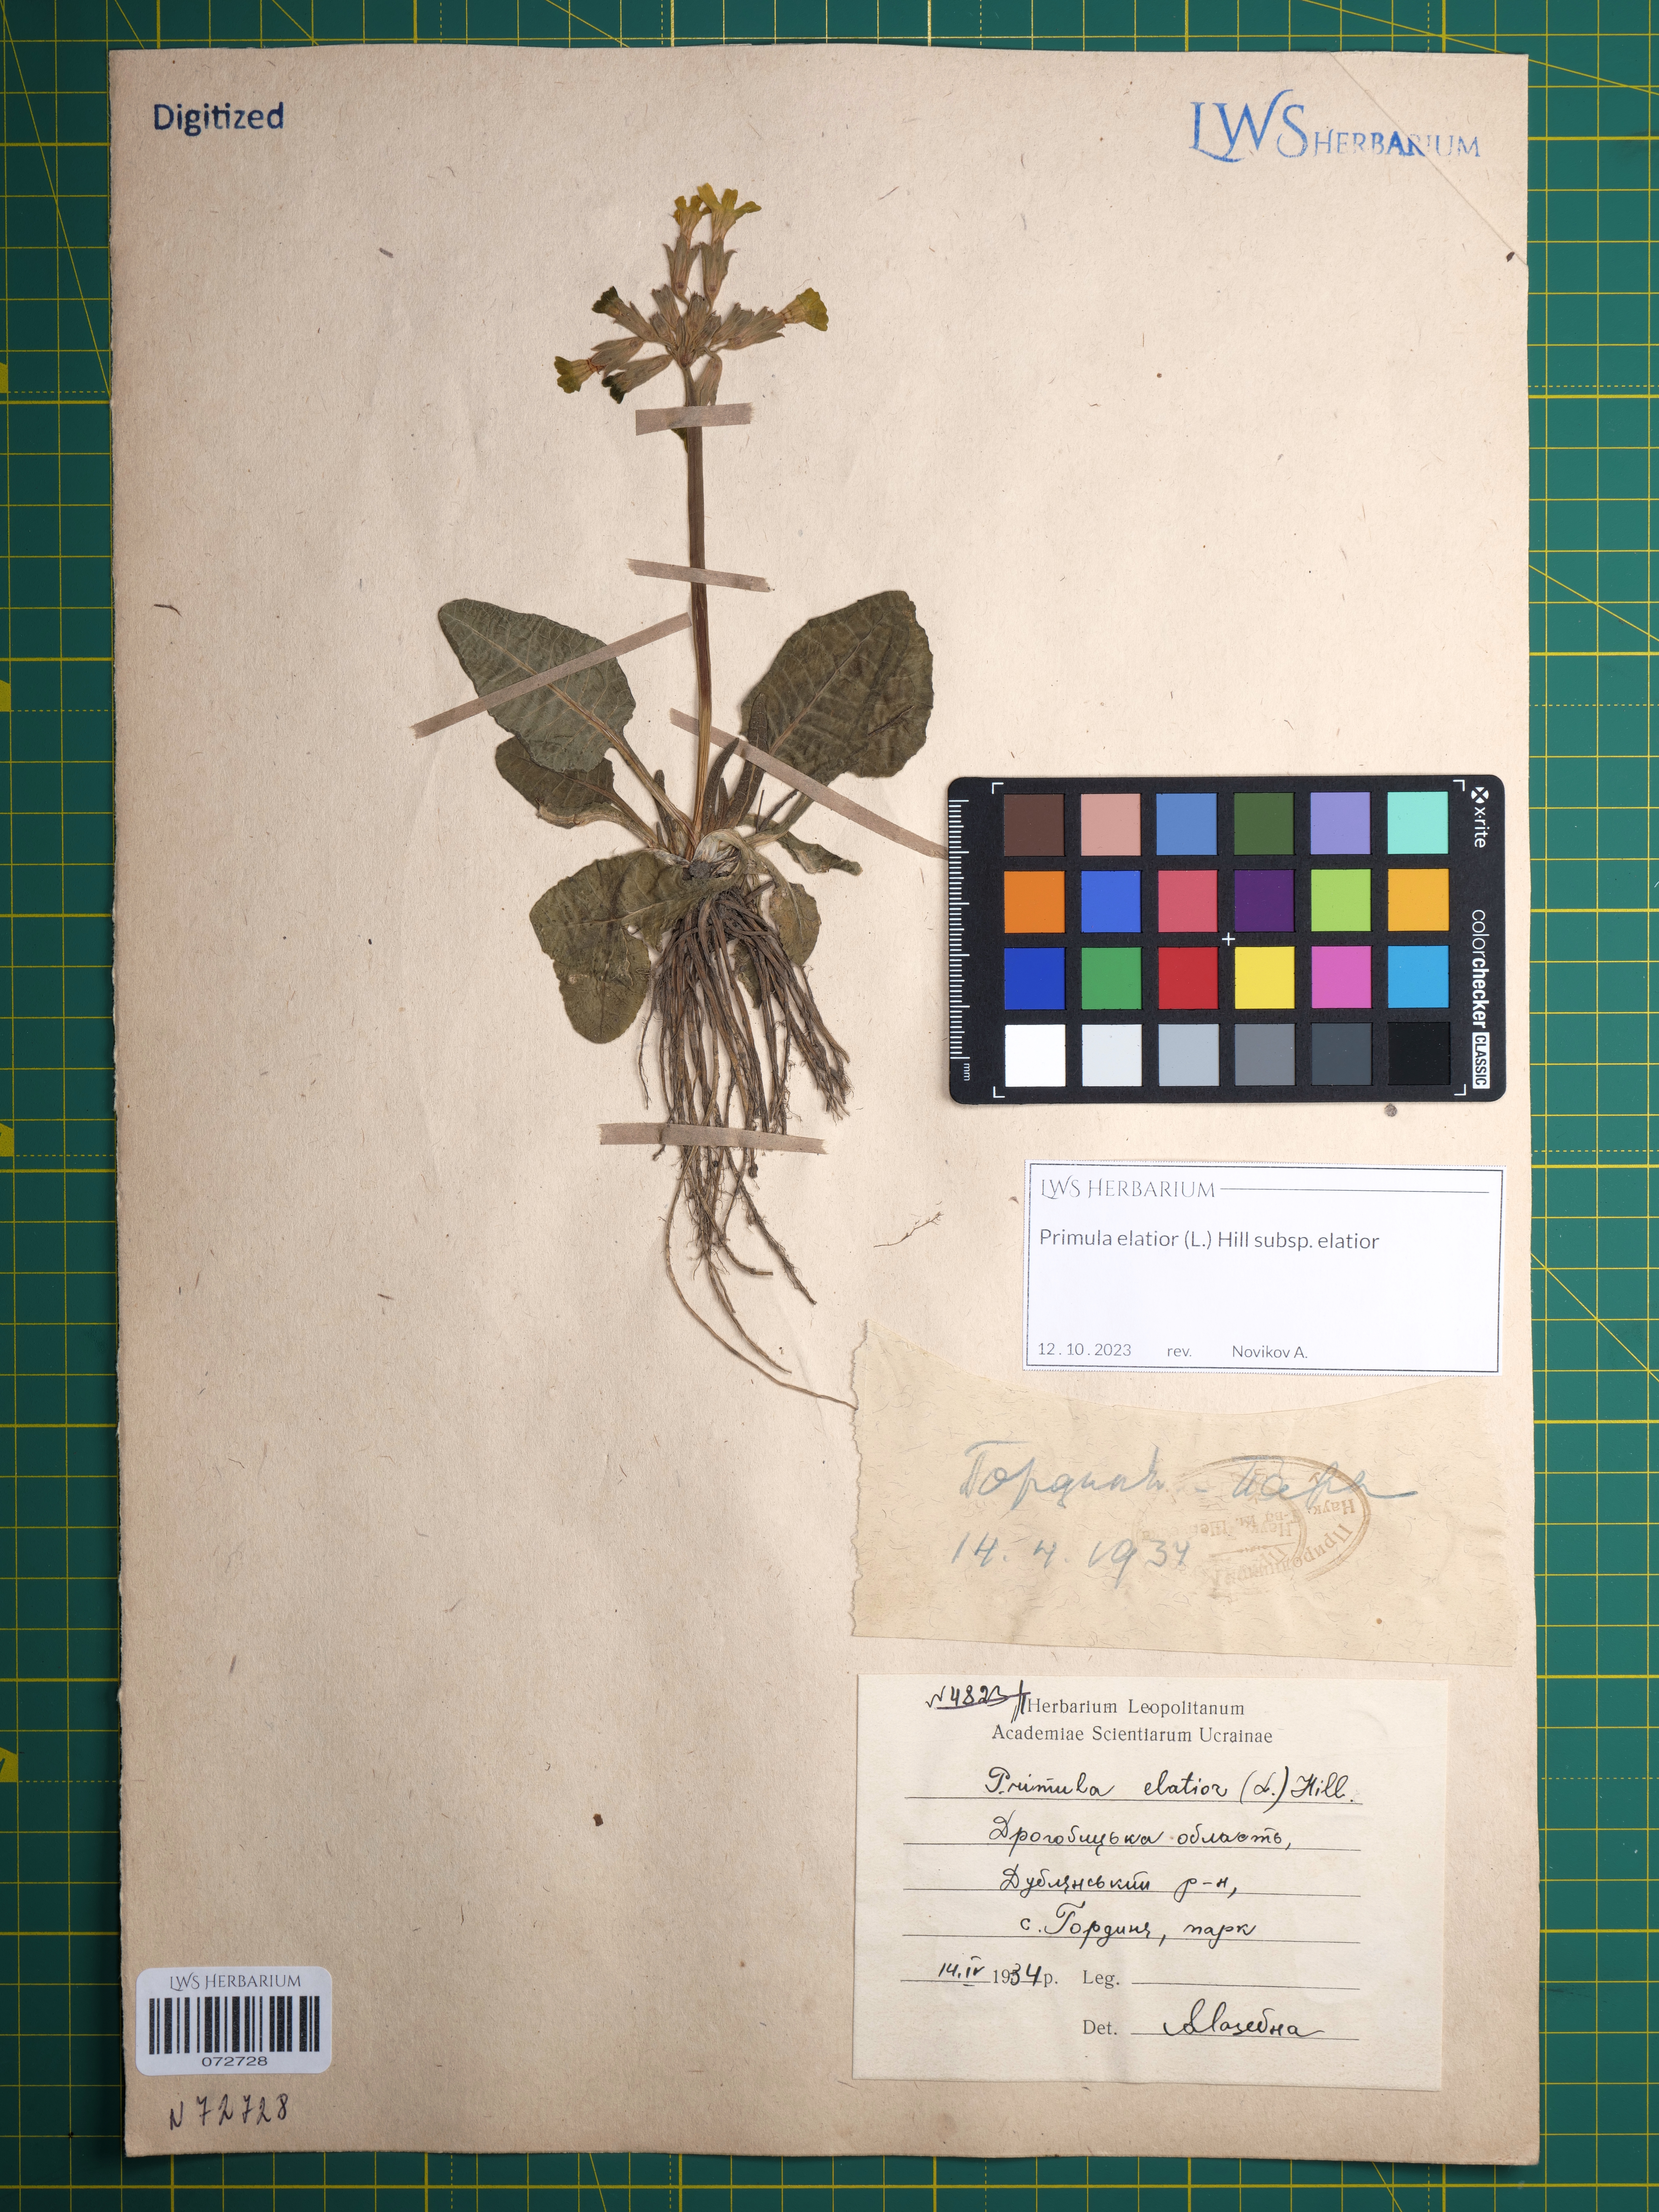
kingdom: Plantae
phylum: Tracheophyta
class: Magnoliopsida
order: Ericales
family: Primulaceae
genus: Primula
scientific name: Primula elatior
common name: Oxlip
